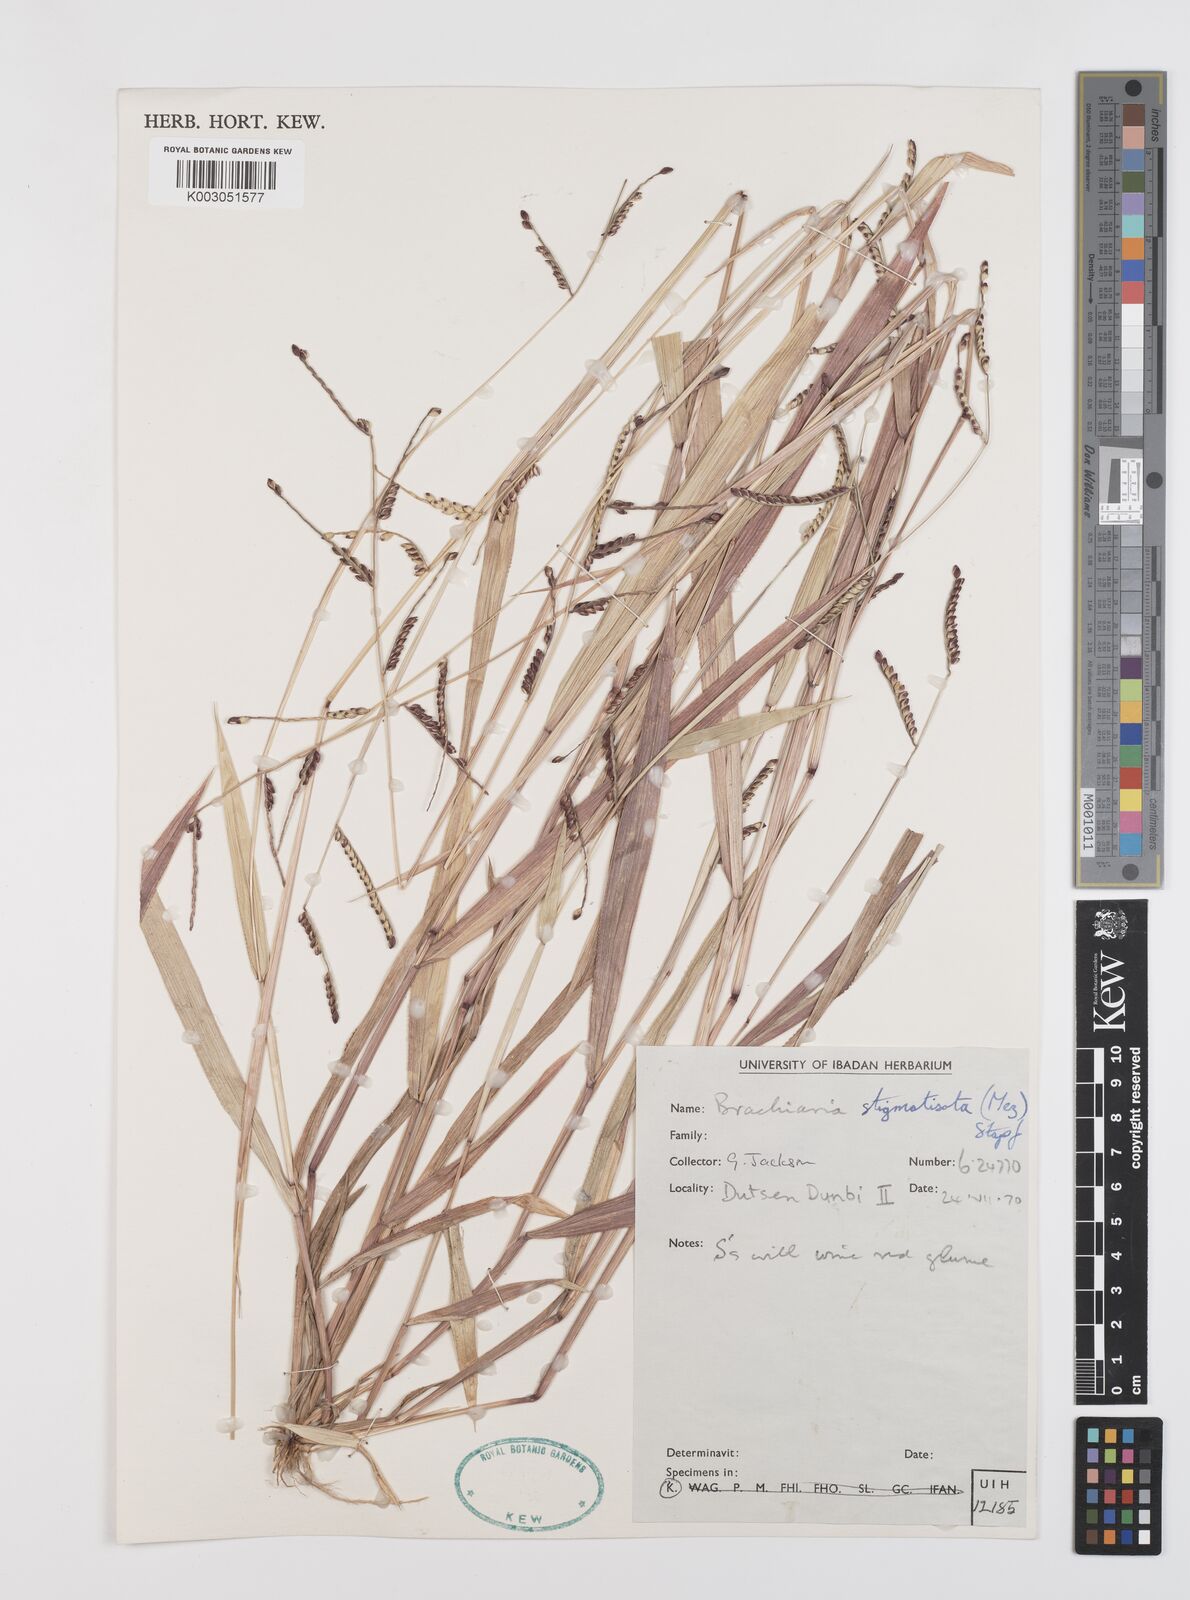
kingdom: Plantae
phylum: Tracheophyta
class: Liliopsida
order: Poales
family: Poaceae
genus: Urochloa
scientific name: Urochloa stigmatisata
